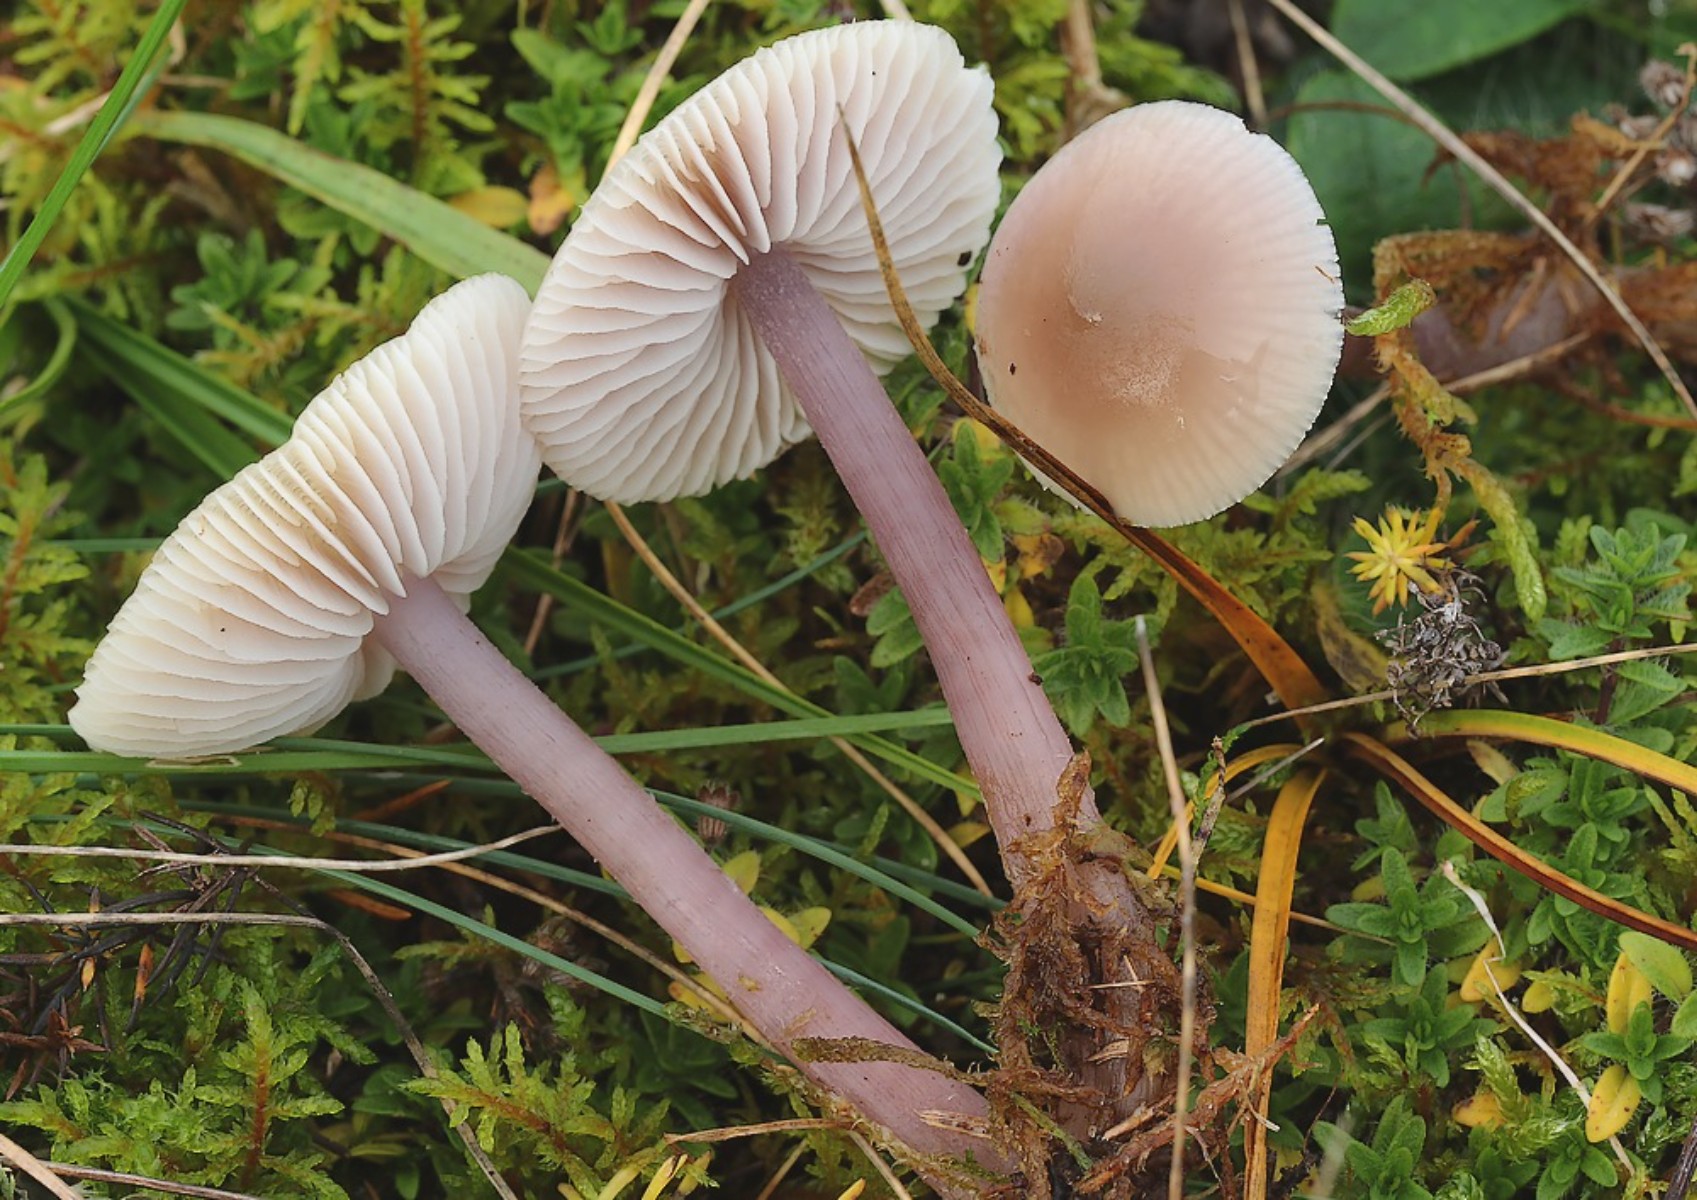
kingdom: Fungi
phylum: Basidiomycota
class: Agaricomycetes
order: Agaricales
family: Mycenaceae
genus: Mycena
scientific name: Mycena luteovariegata
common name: lillagul huesvamp
